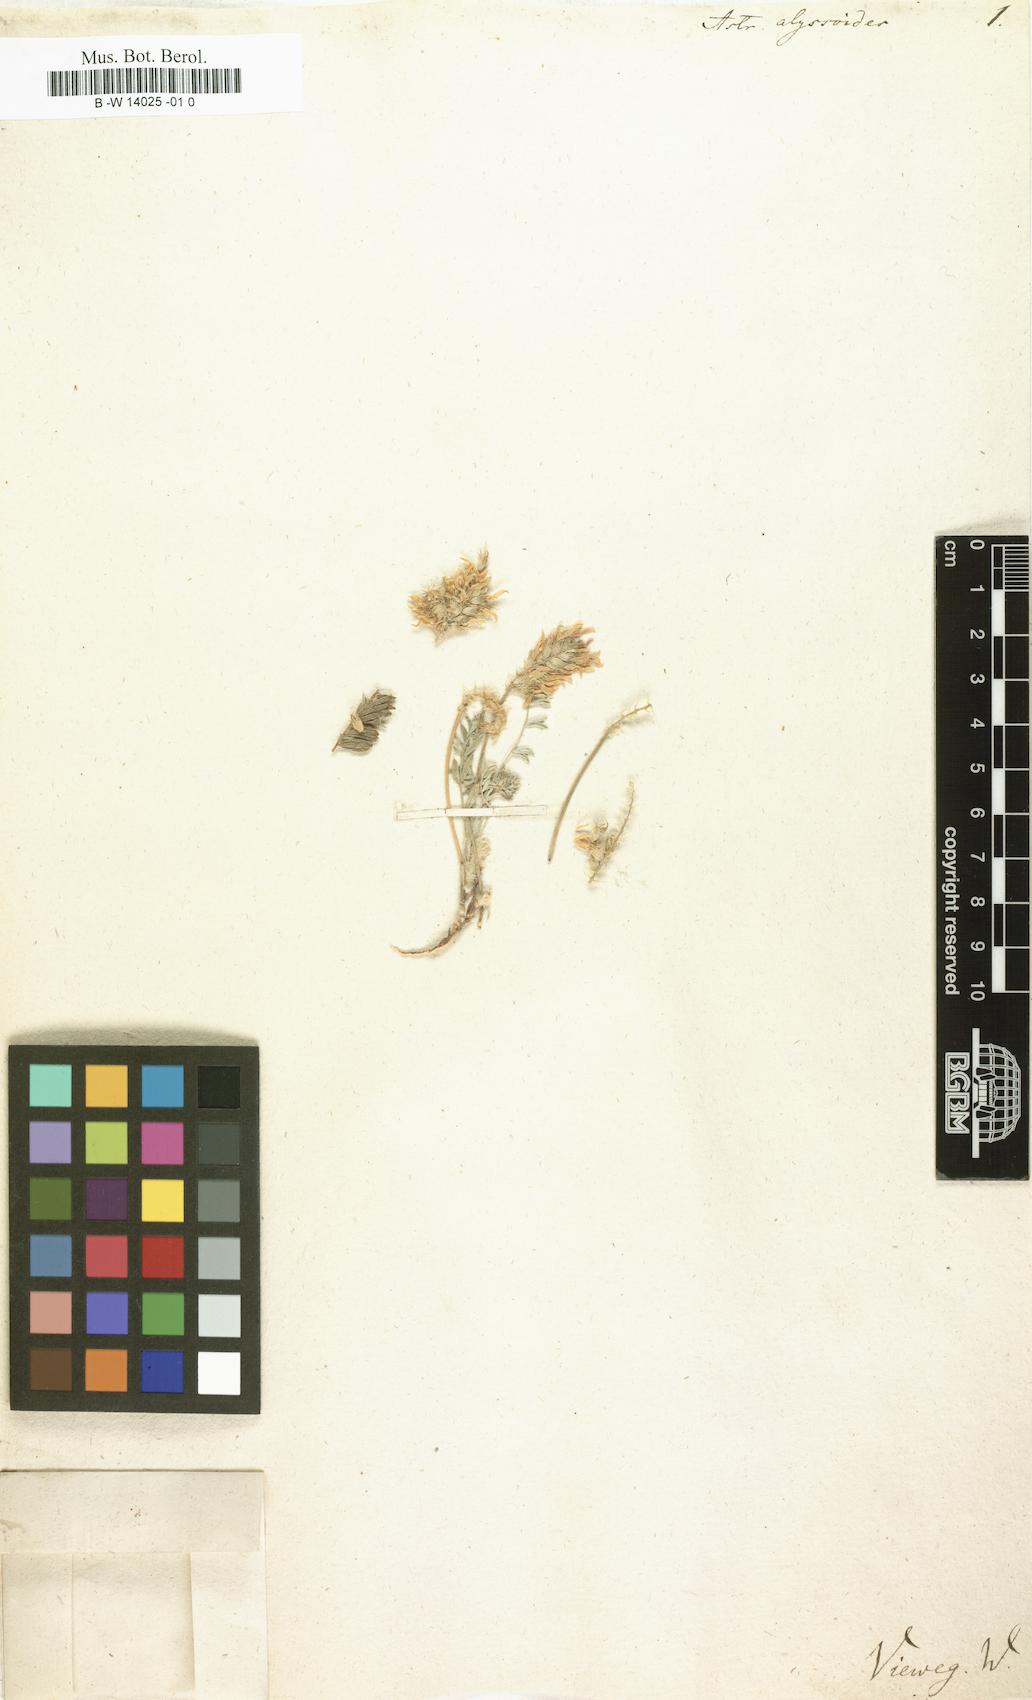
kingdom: Plantae
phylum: Tracheophyta
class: Magnoliopsida
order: Fabales
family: Fabaceae
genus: Astragalus
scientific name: Astragalus alyssoides
